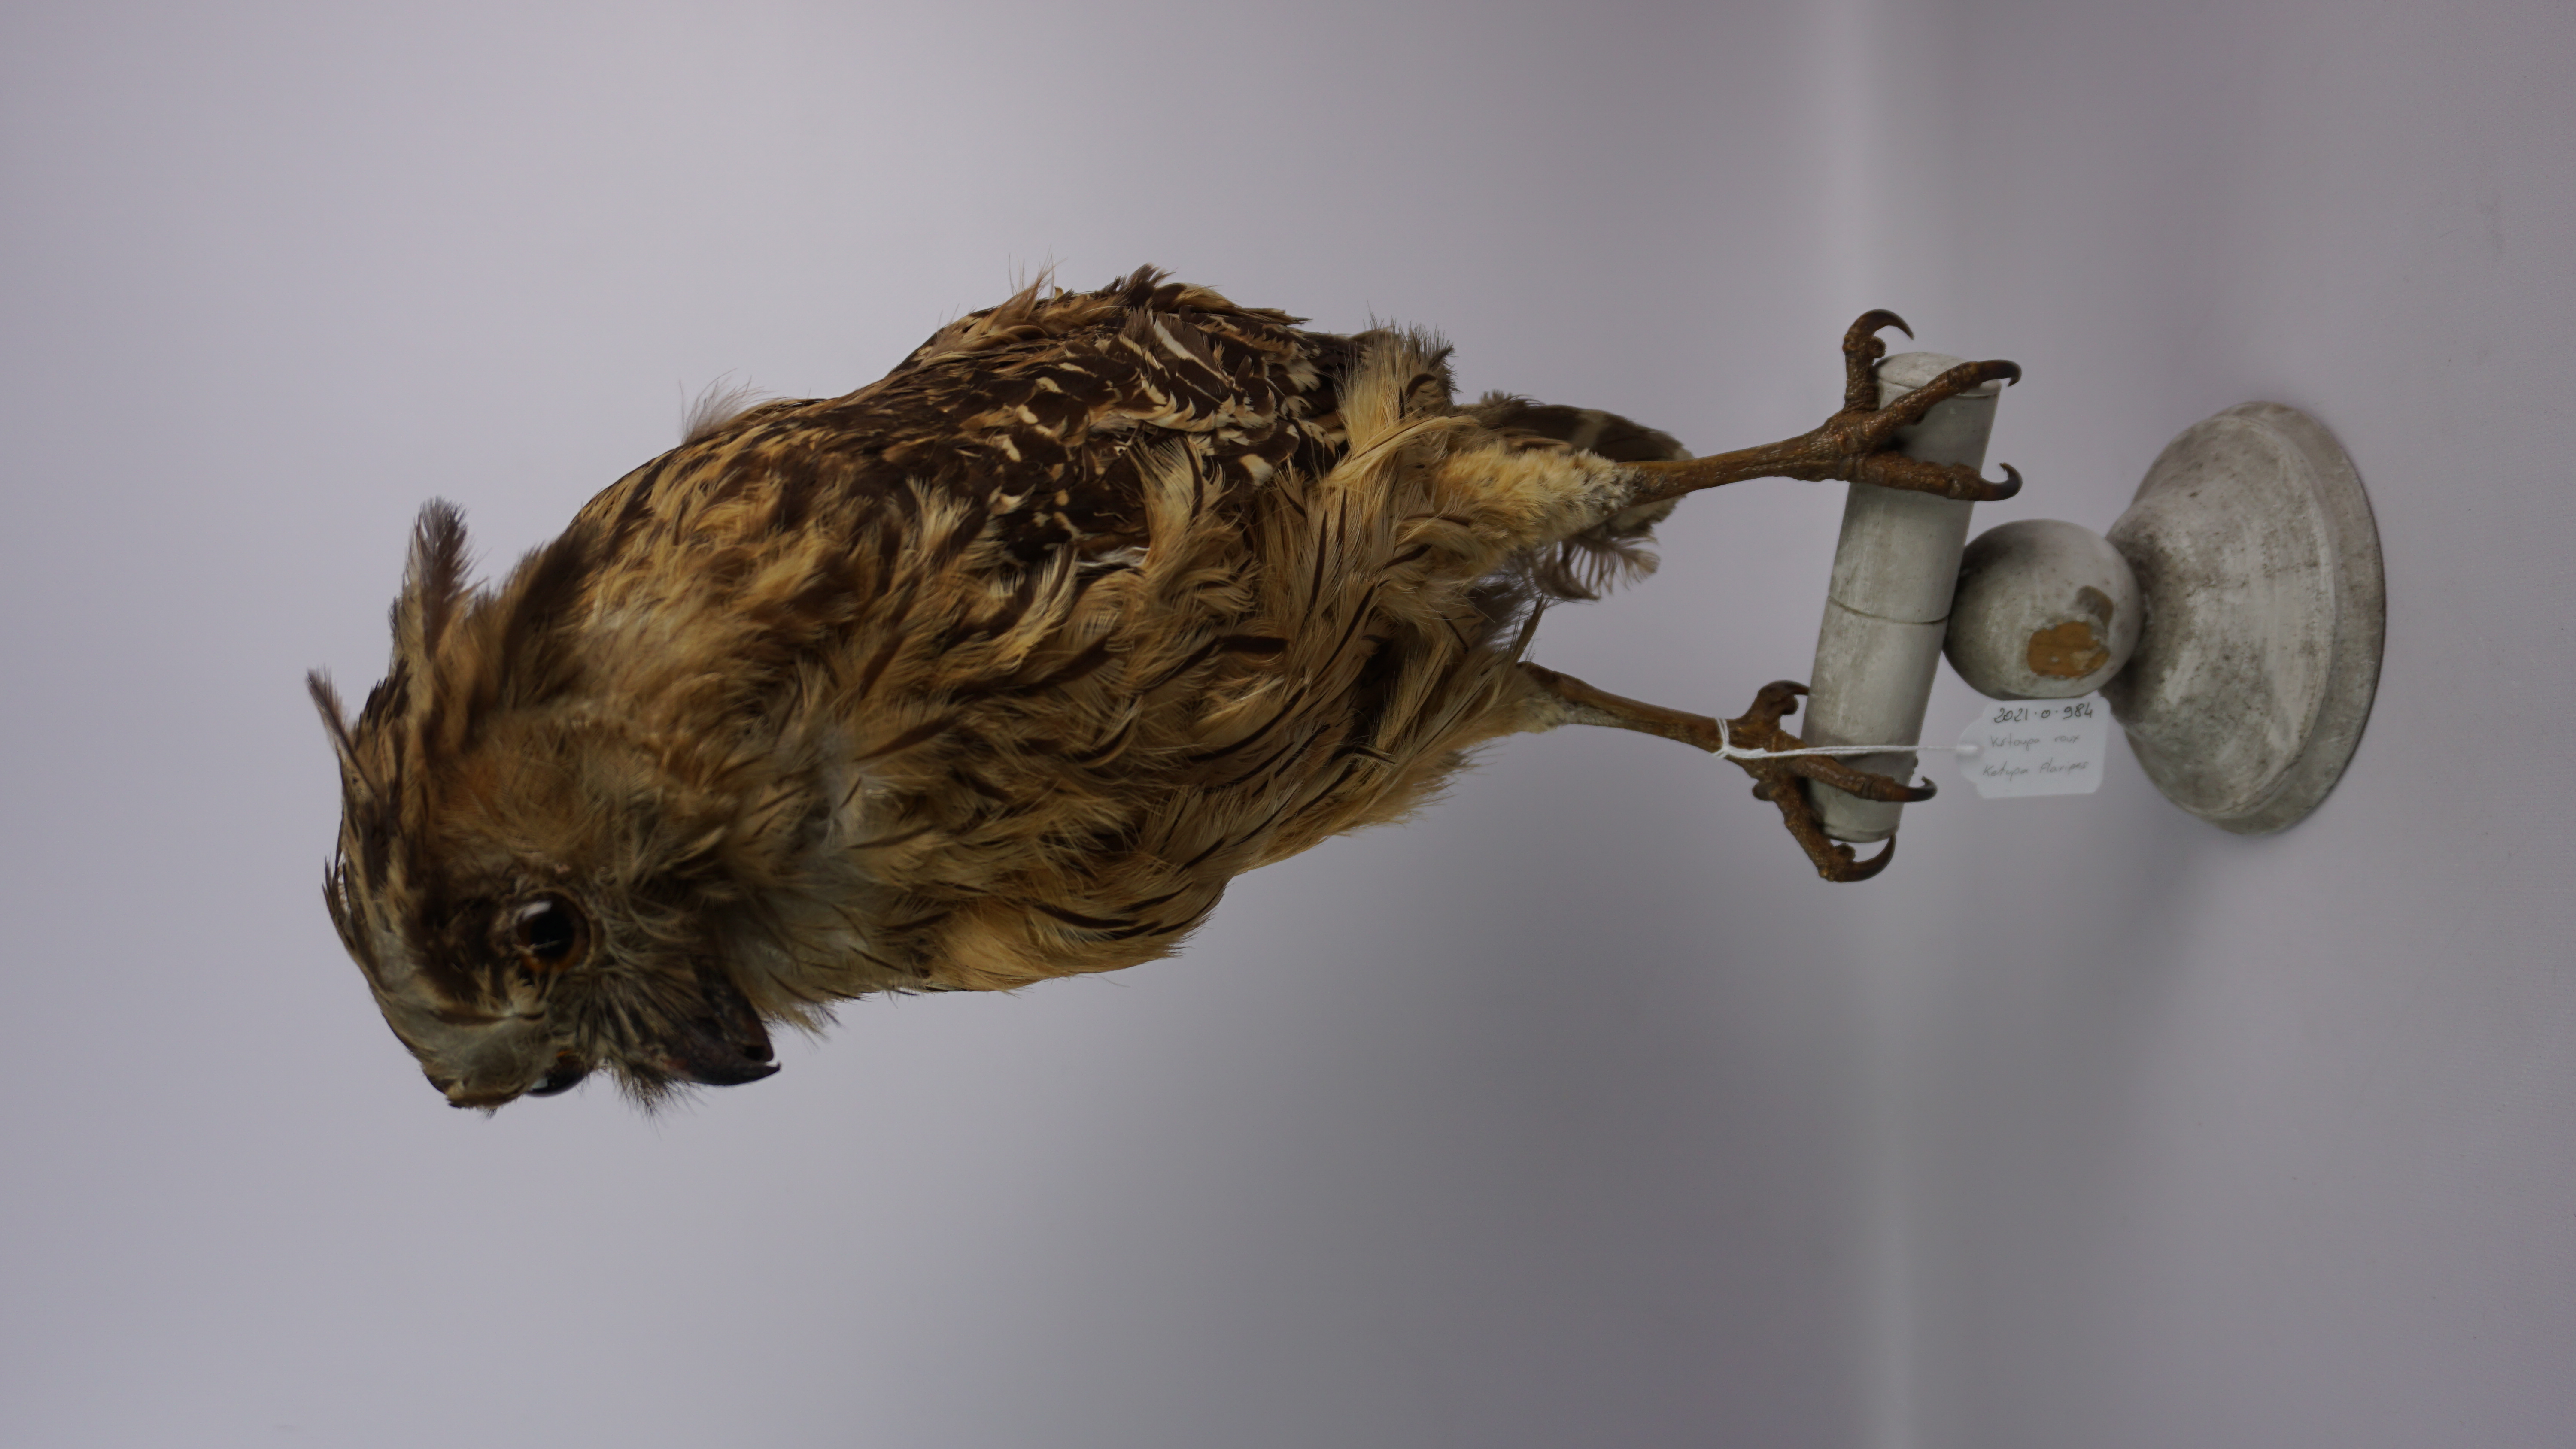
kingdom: Animalia
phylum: Chordata
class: Aves
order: Strigiformes
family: Strigidae
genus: Ketupa
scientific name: Ketupa flavipes
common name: Tawny fish owl
